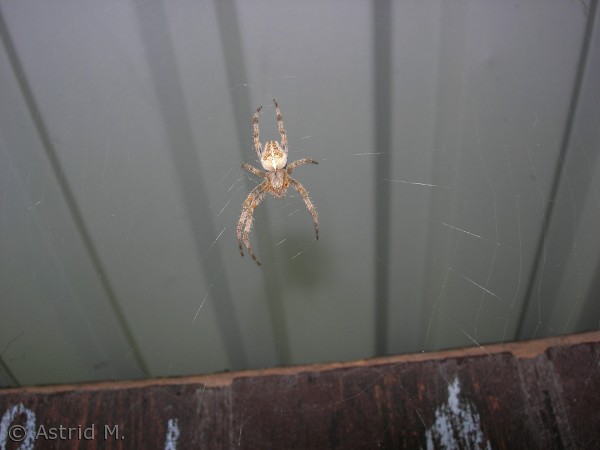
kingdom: Animalia
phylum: Arthropoda
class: Arachnida
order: Araneae
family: Araneidae
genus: Araneus
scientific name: Araneus diadematus
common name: Korsedderkop
